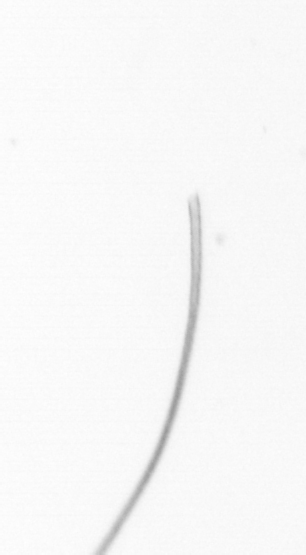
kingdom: Chromista
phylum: Ochrophyta
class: Bacillariophyceae
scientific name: Bacillariophyceae
